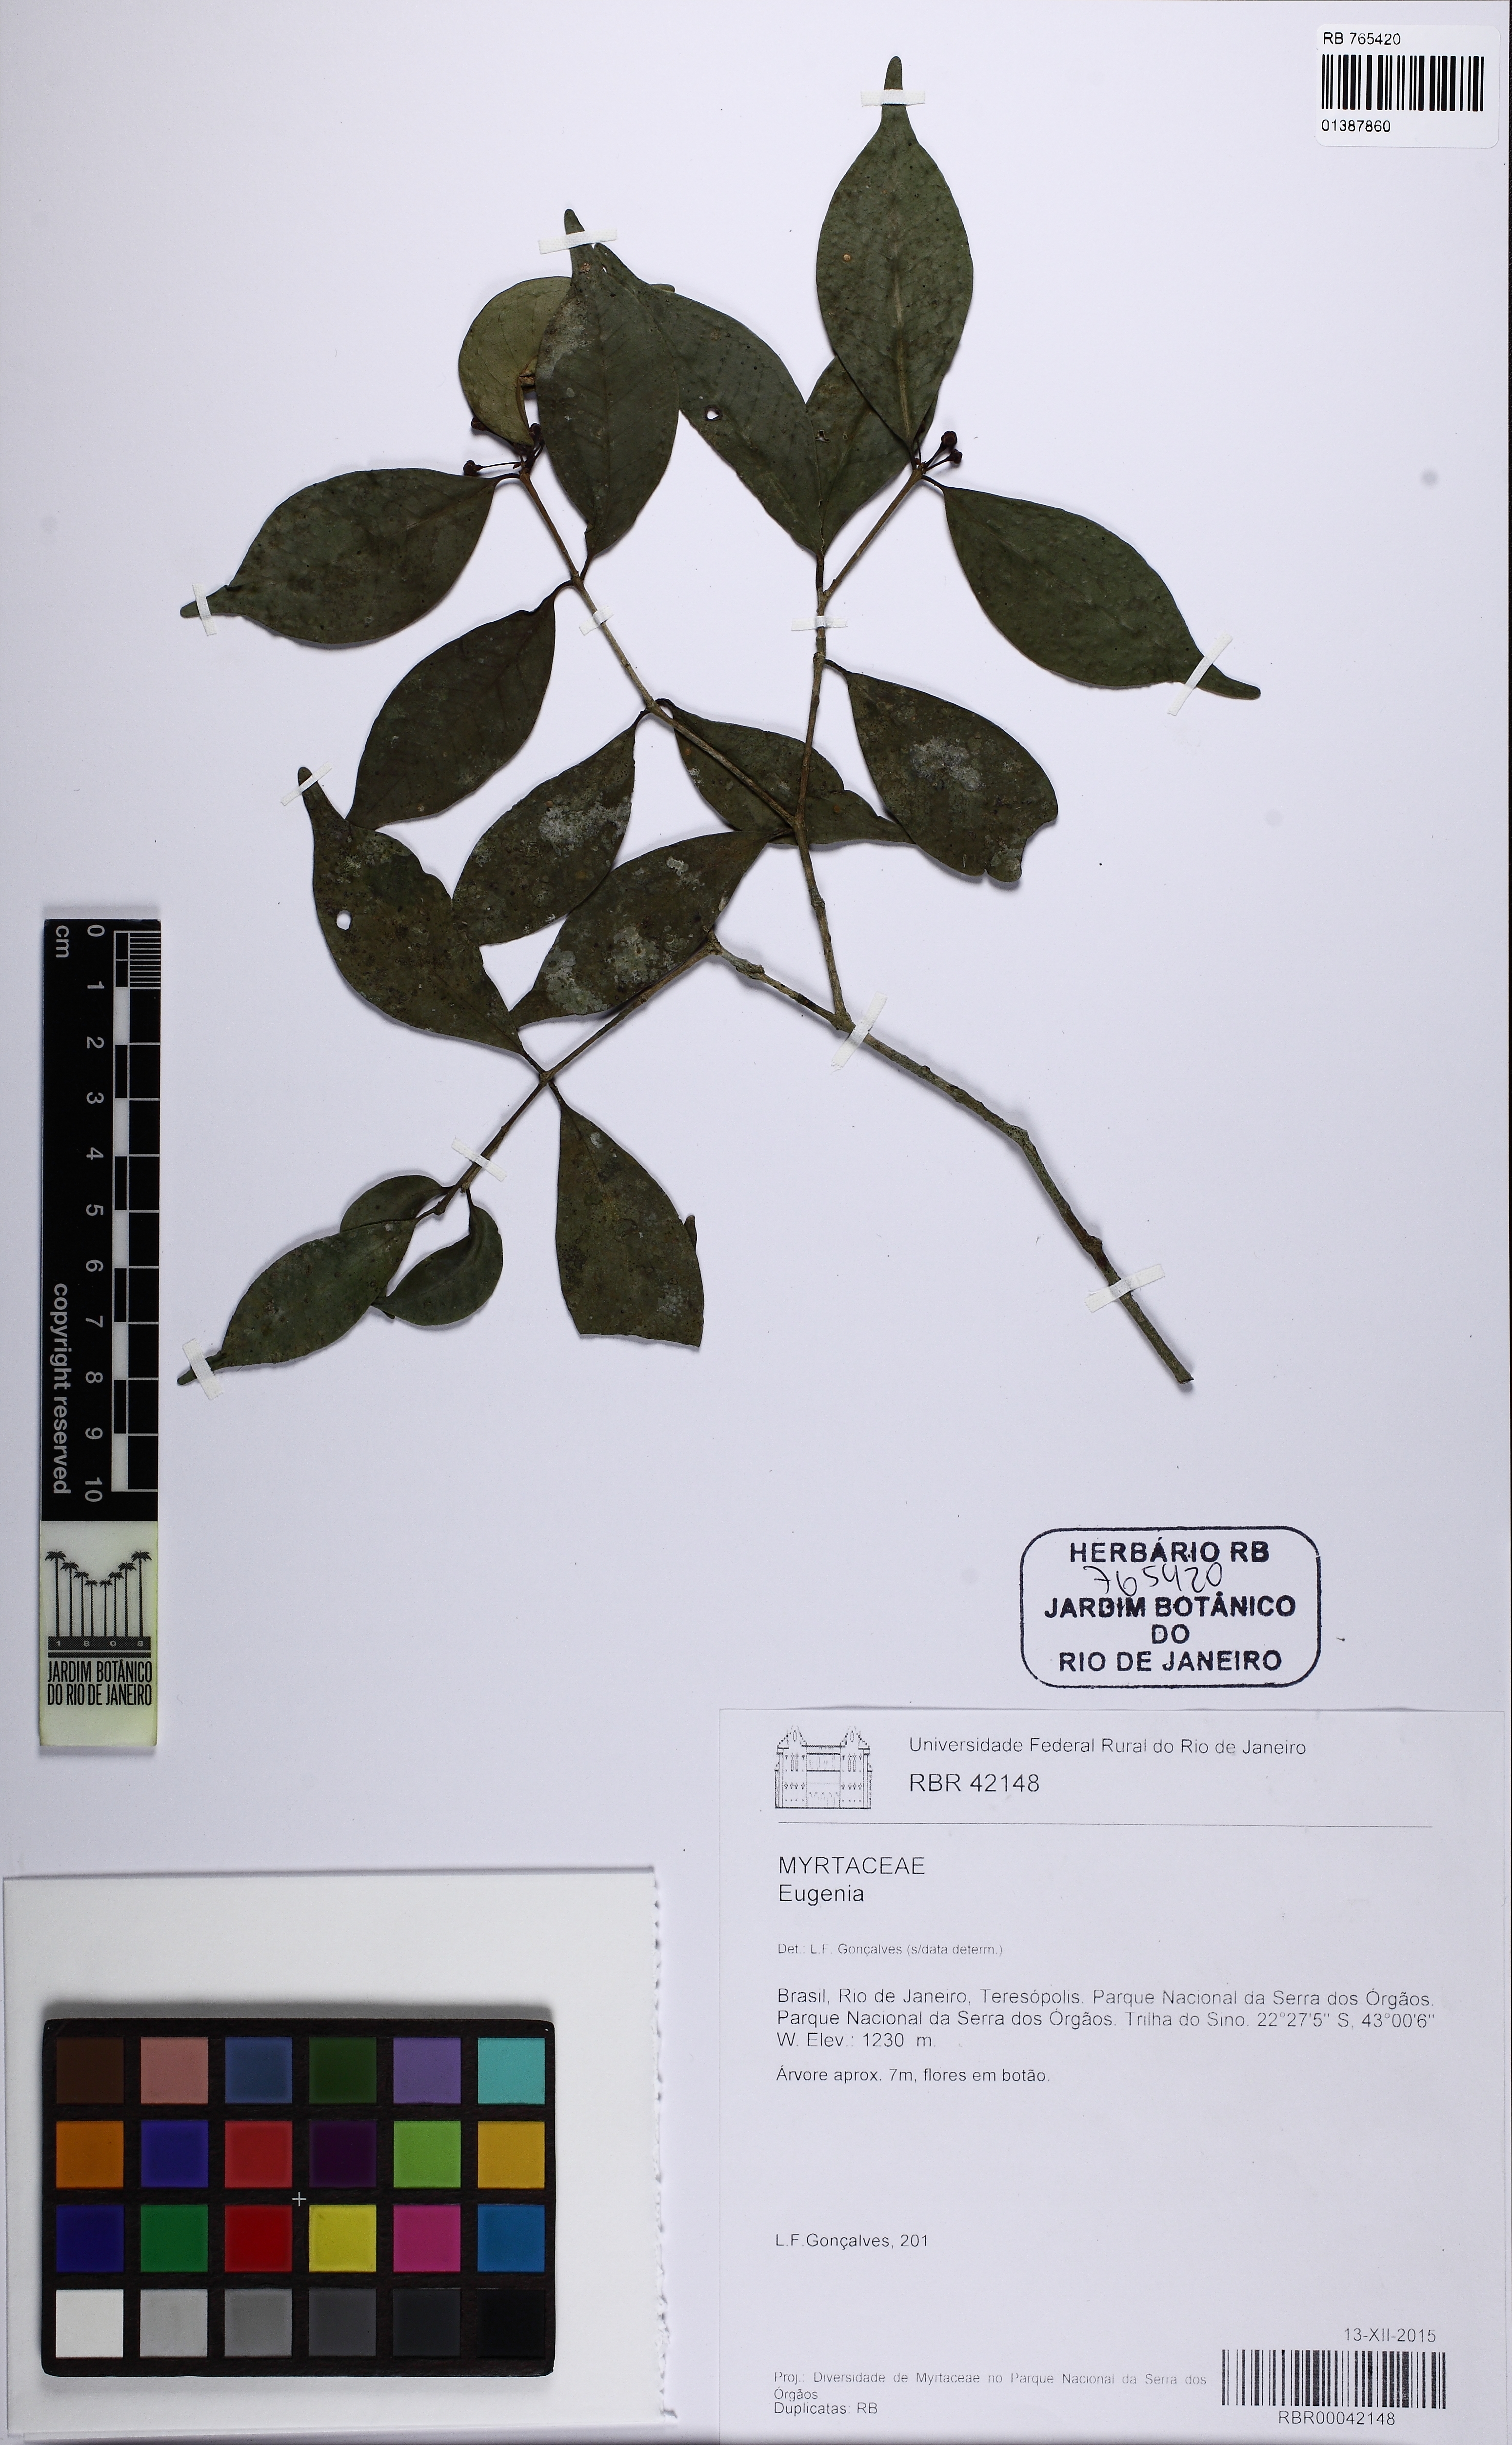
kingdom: Plantae
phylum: Tracheophyta
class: Magnoliopsida
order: Myrtales
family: Myrtaceae
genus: Eugenia
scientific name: Eugenia subavenia
